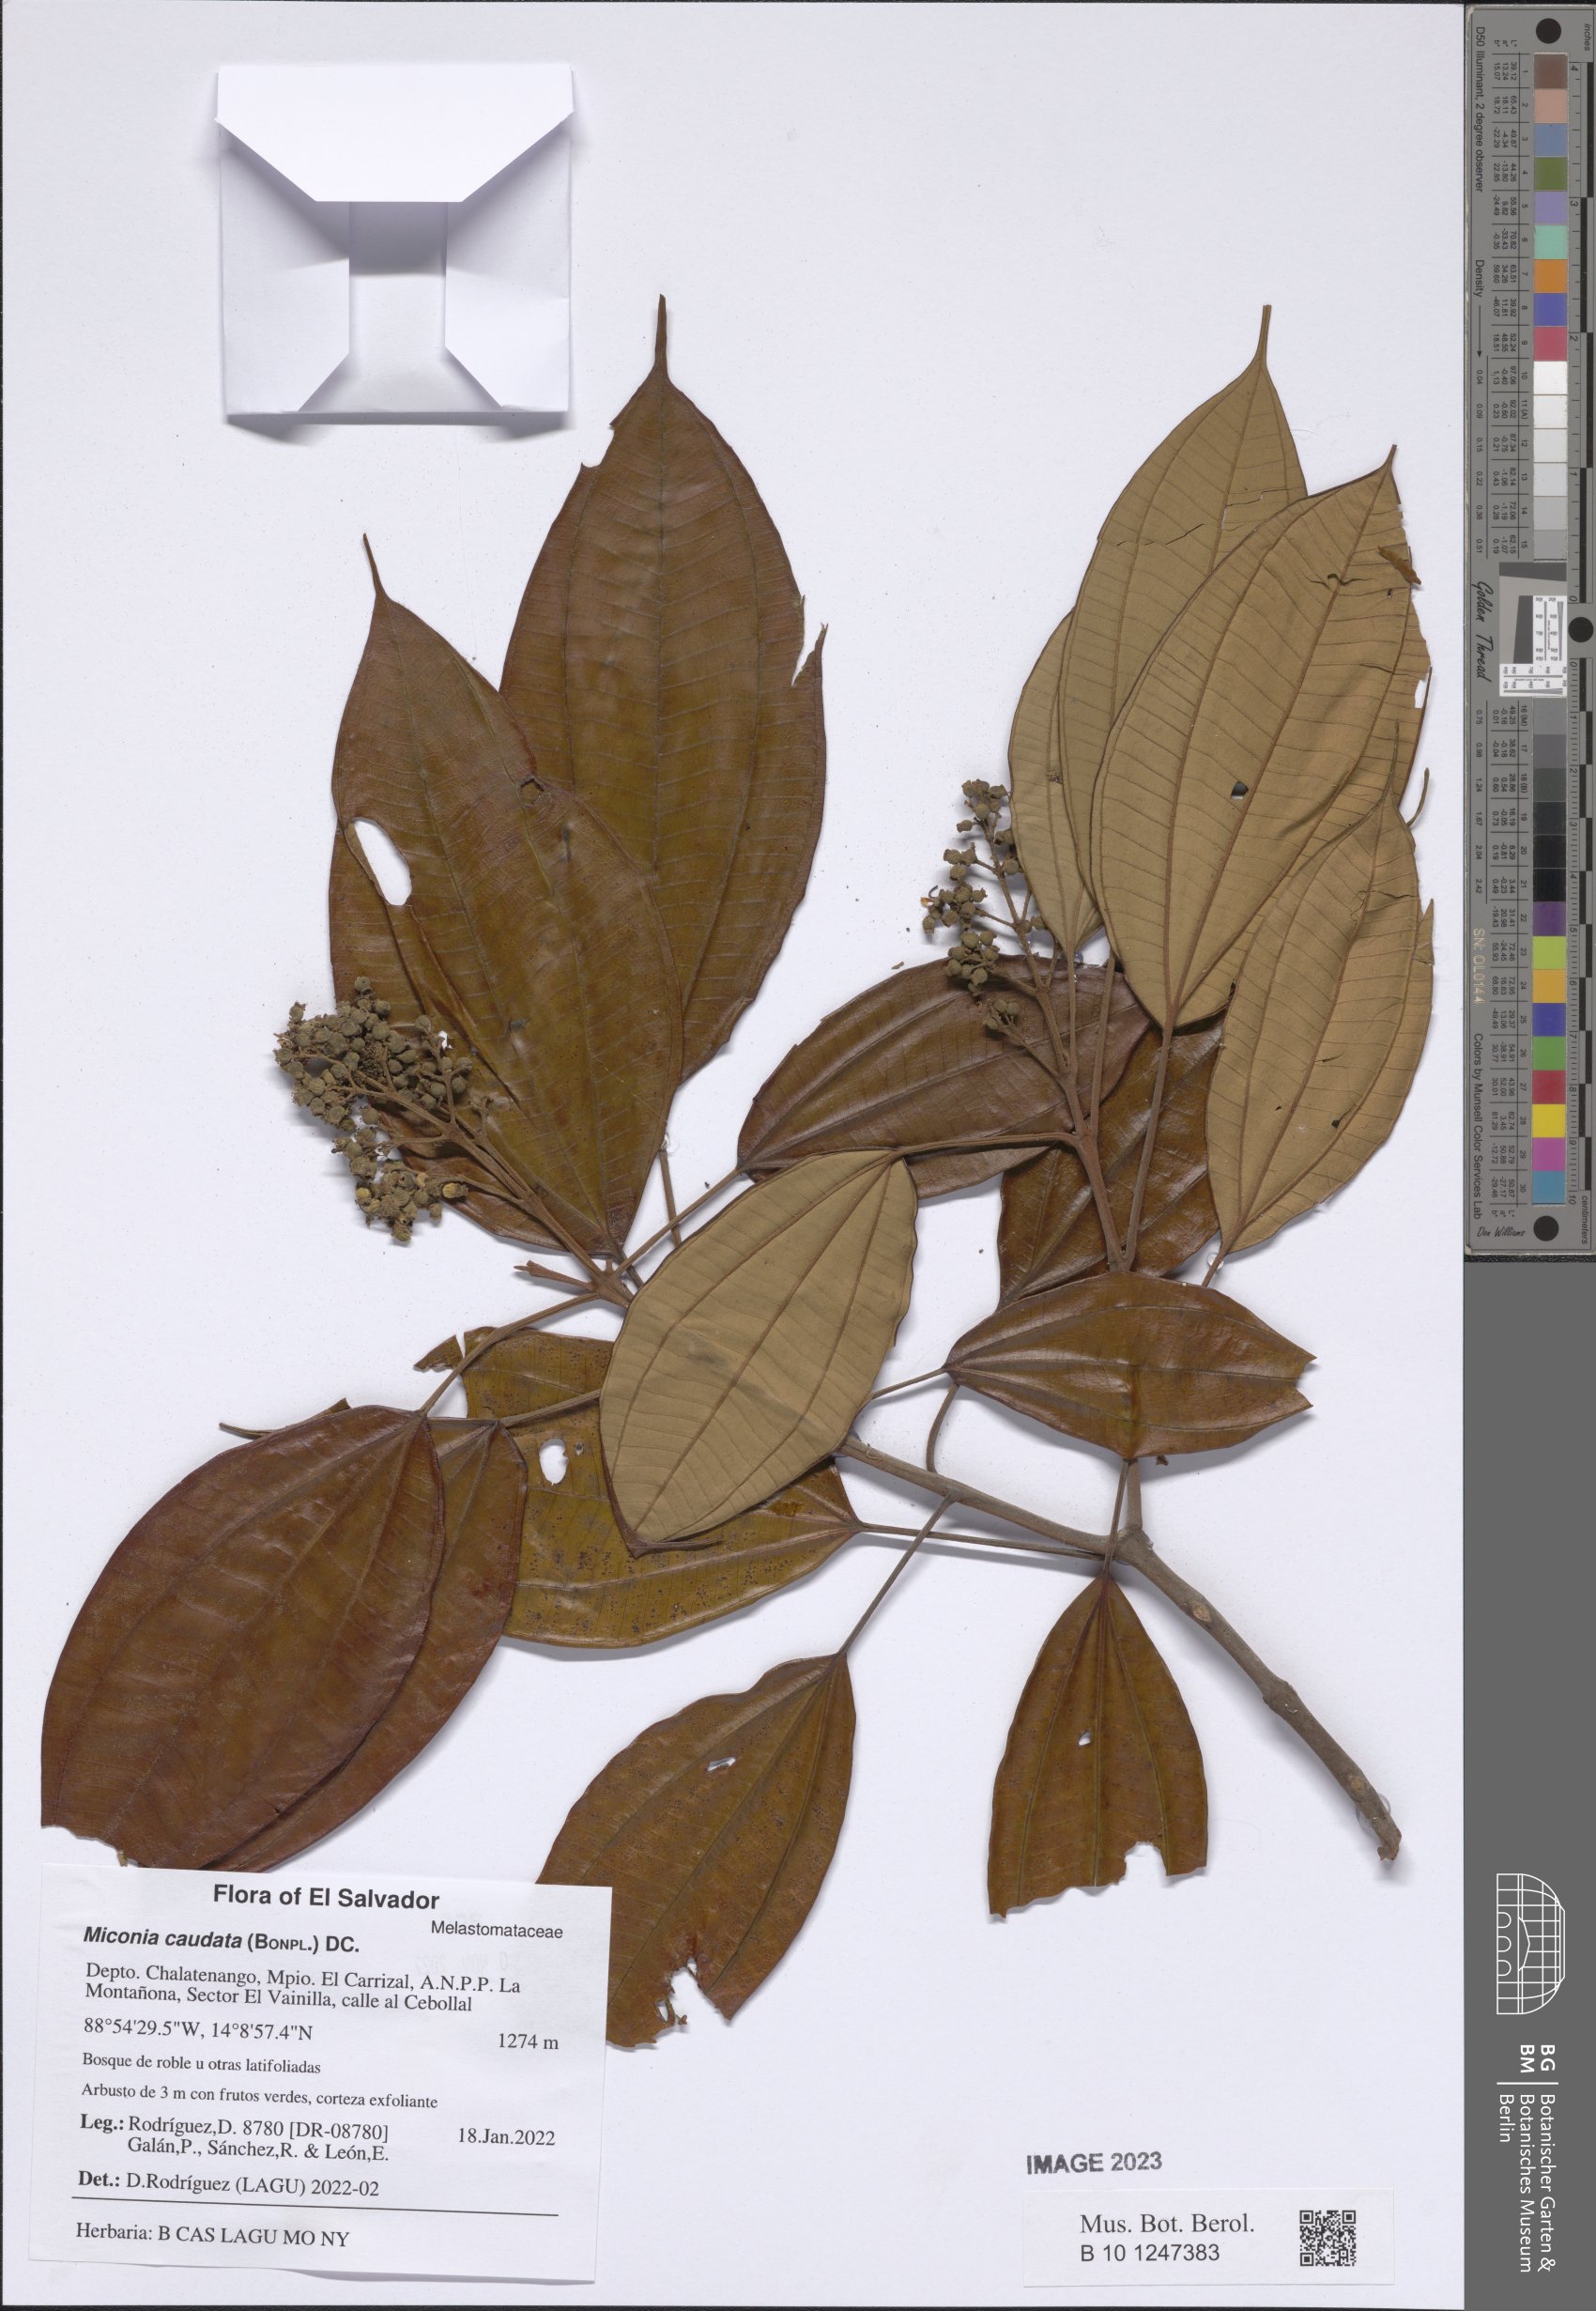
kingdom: Plantae
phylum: Tracheophyta
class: Magnoliopsida
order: Myrtales
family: Melastomataceae
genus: Miconia
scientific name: Miconia caudata
